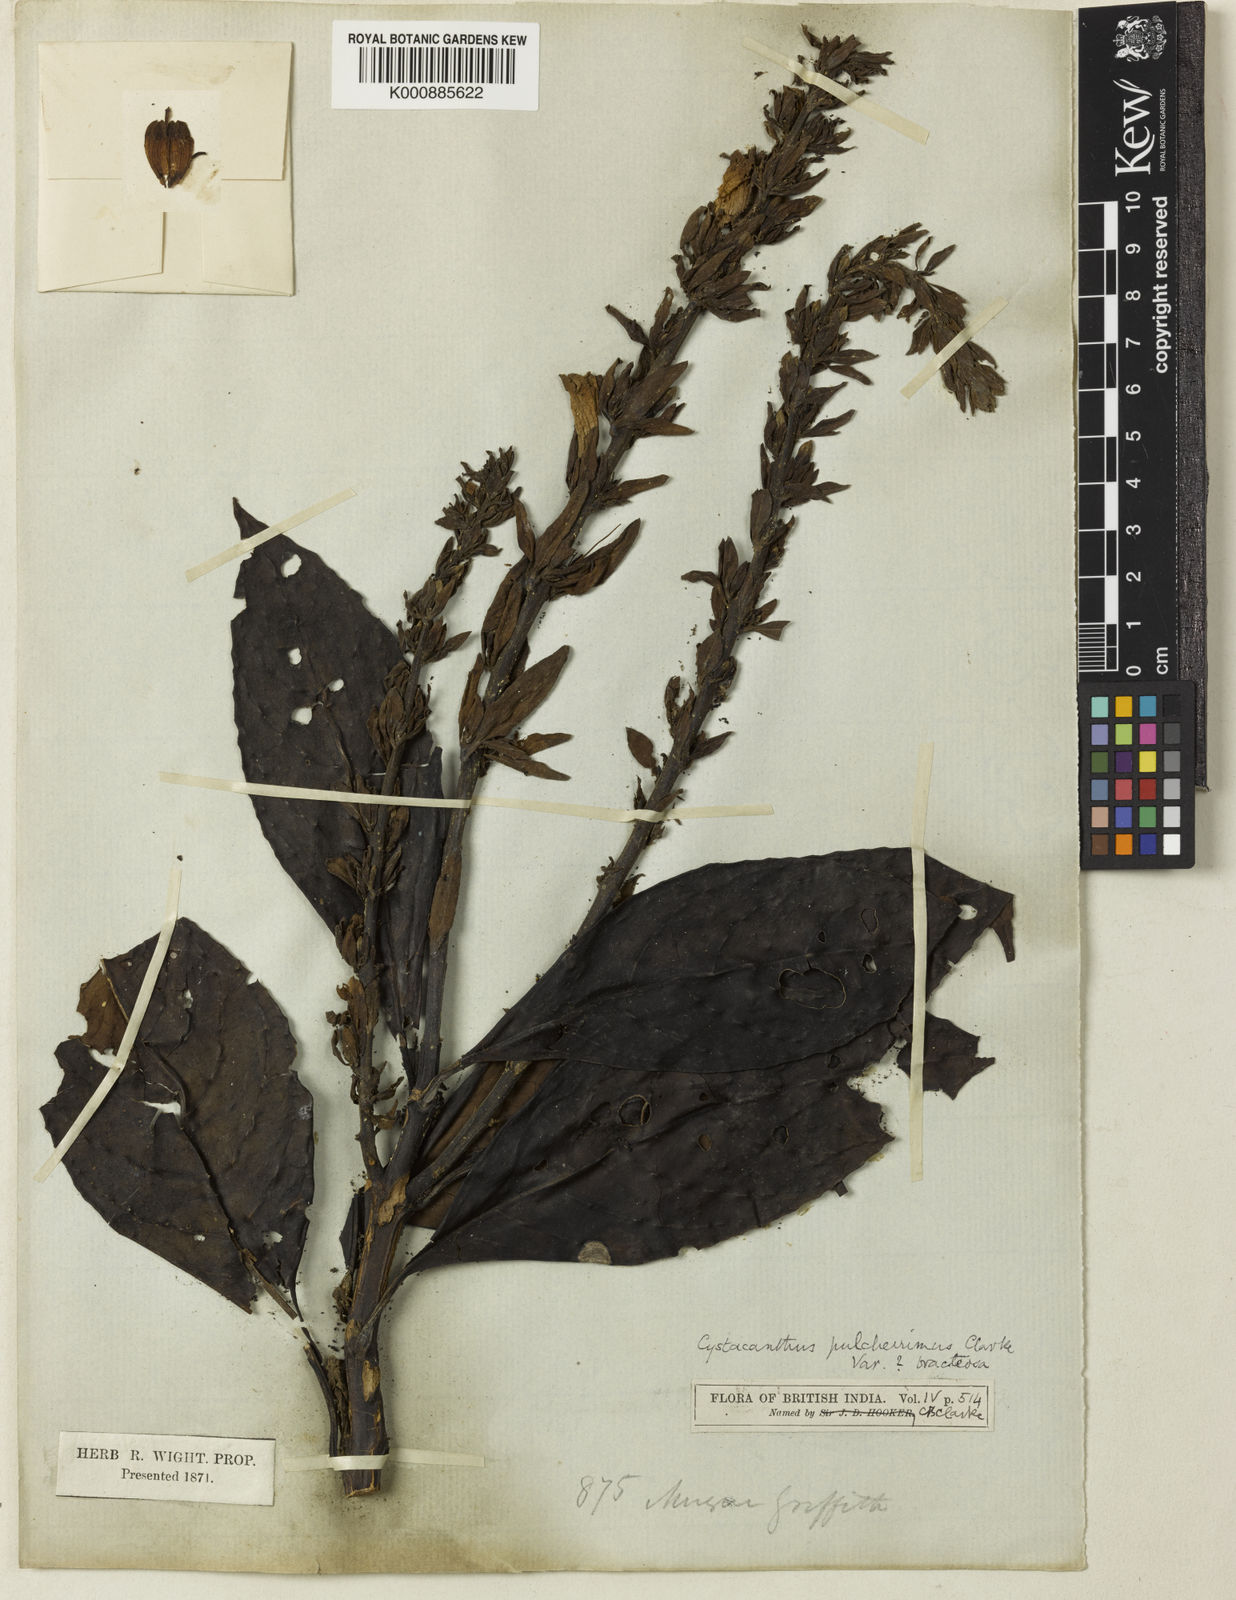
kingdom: Plantae
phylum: Tracheophyta
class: Magnoliopsida
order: Lamiales
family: Acanthaceae
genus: Phlogacanthus
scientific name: Phlogacanthus pulcherrimus
